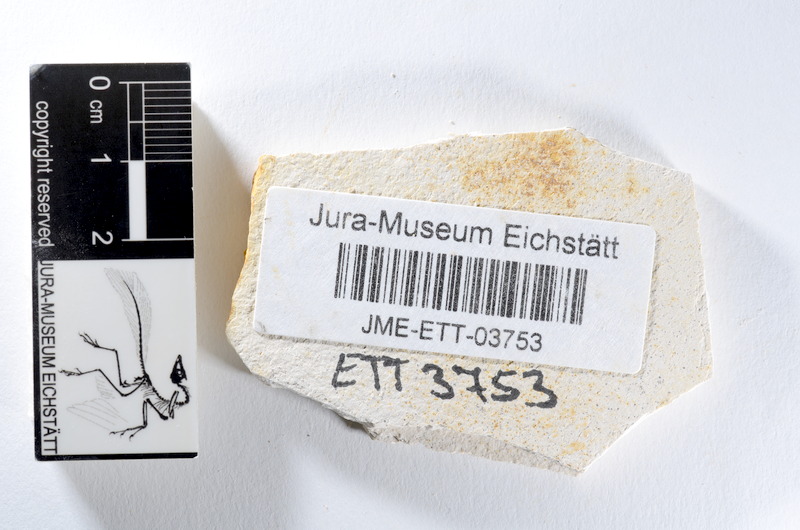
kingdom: Animalia
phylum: Chordata
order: Salmoniformes
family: Orthogonikleithridae
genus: Orthogonikleithrus
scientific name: Orthogonikleithrus hoelli
